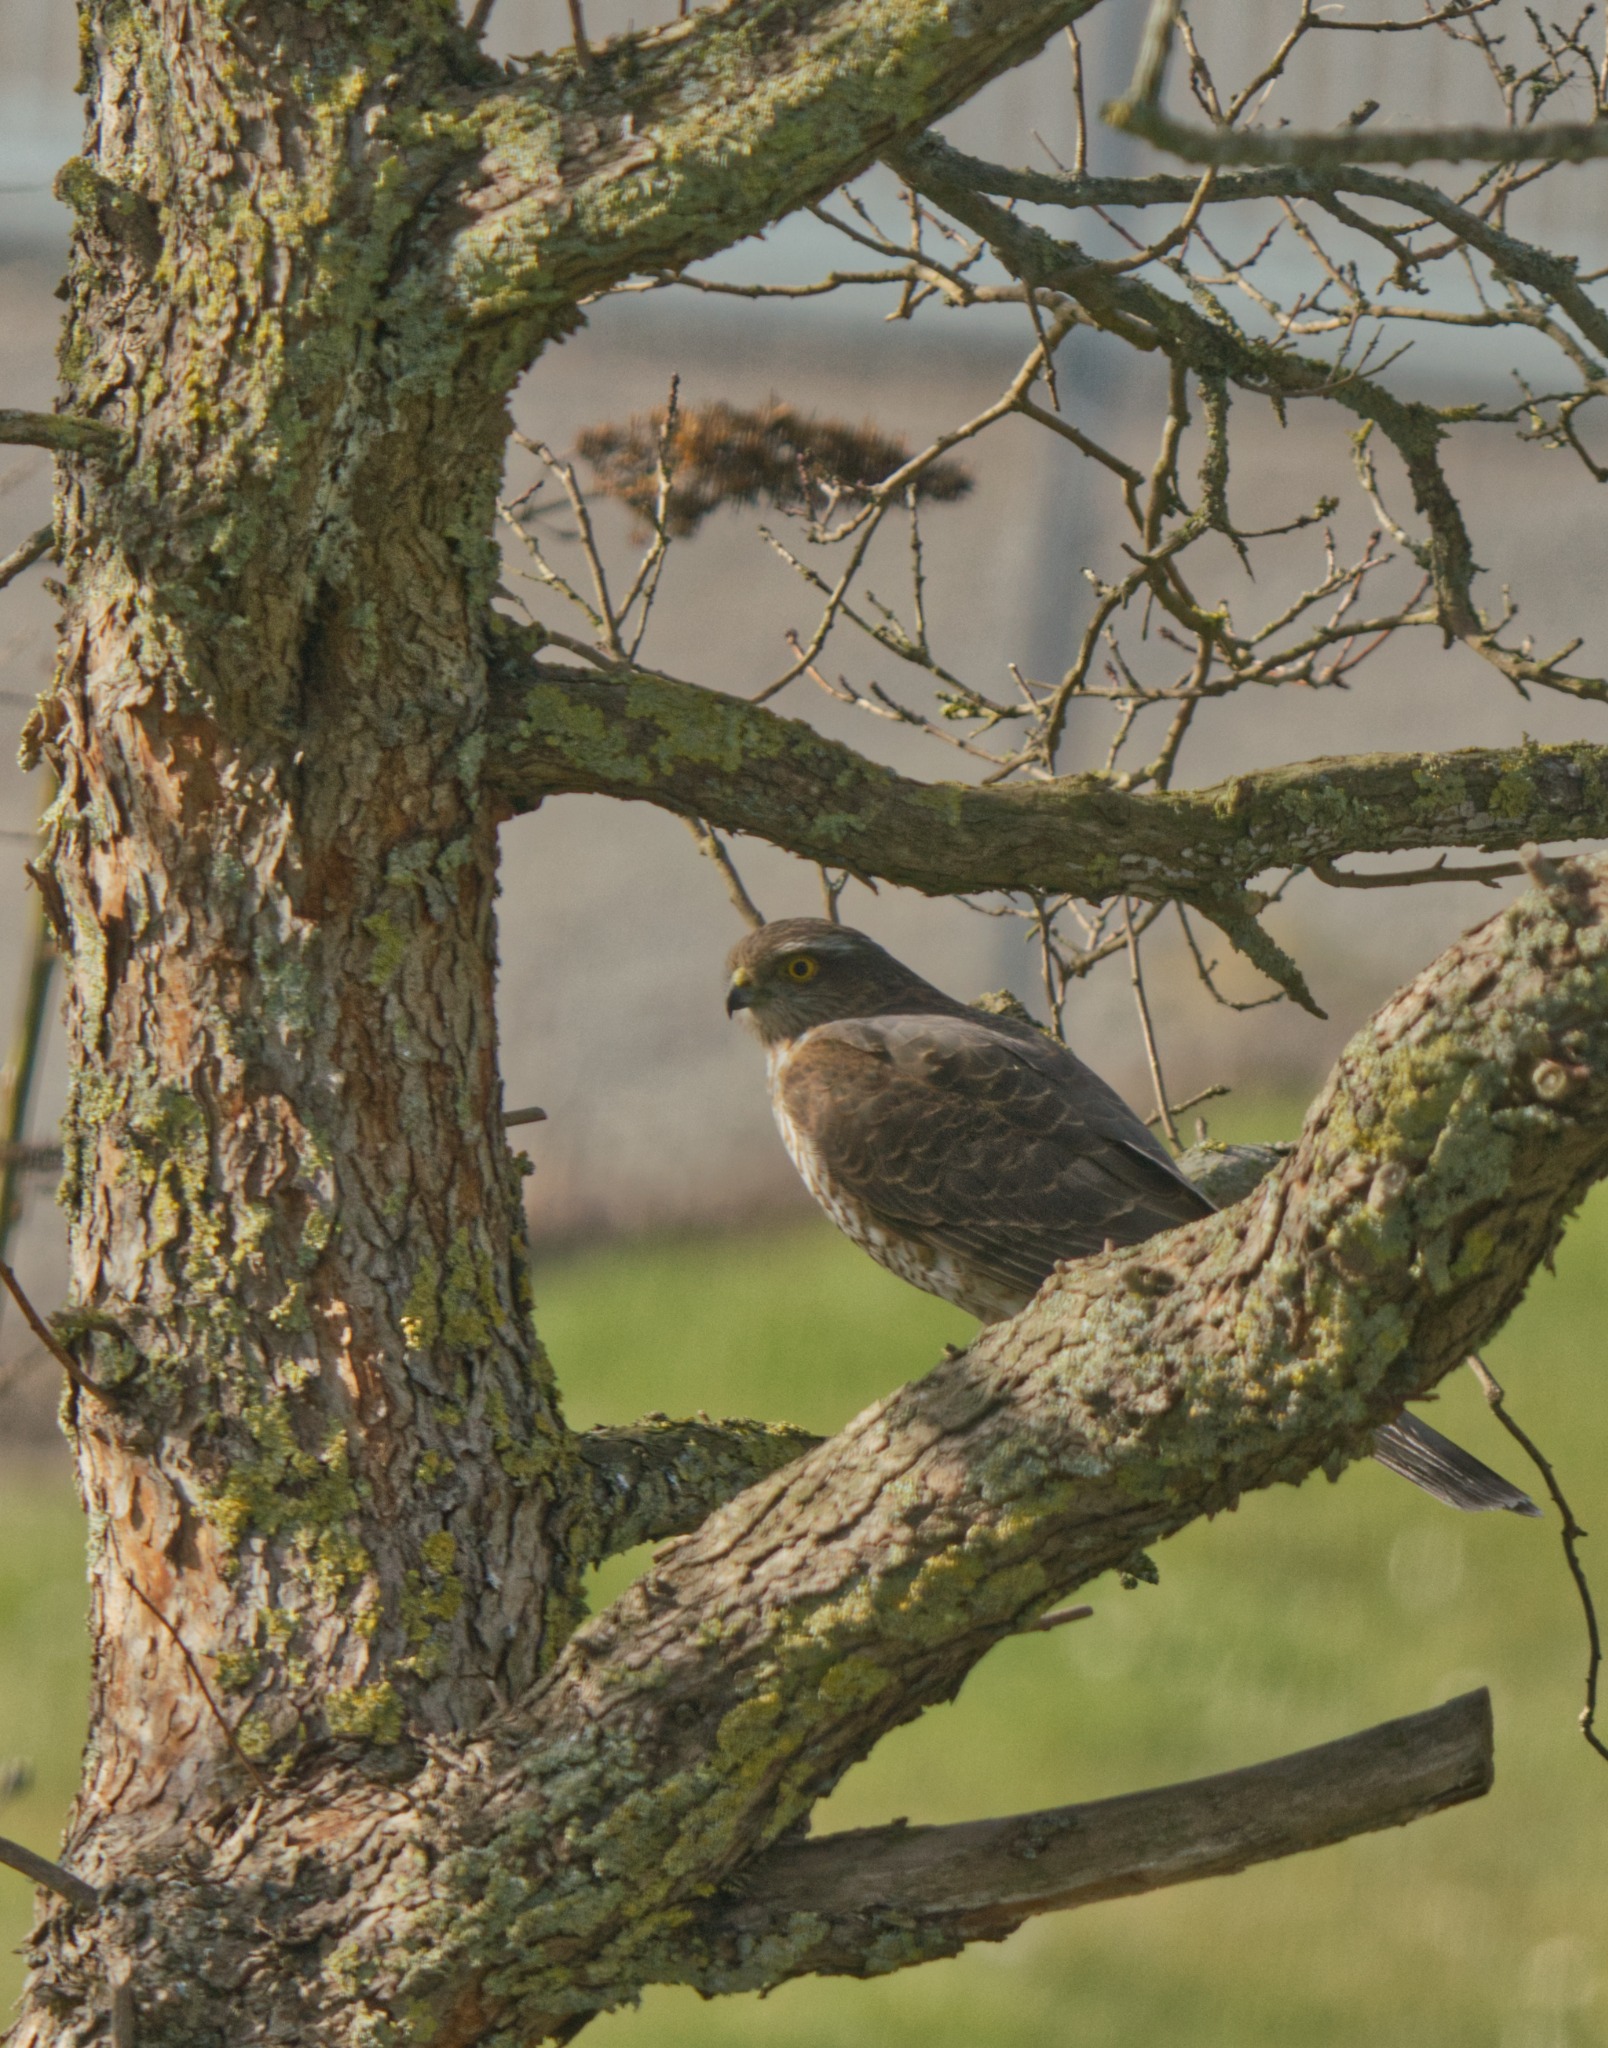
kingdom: Animalia
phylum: Chordata
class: Aves
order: Accipitriformes
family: Accipitridae
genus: Accipiter
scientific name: Accipiter nisus
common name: Spurvehøg
